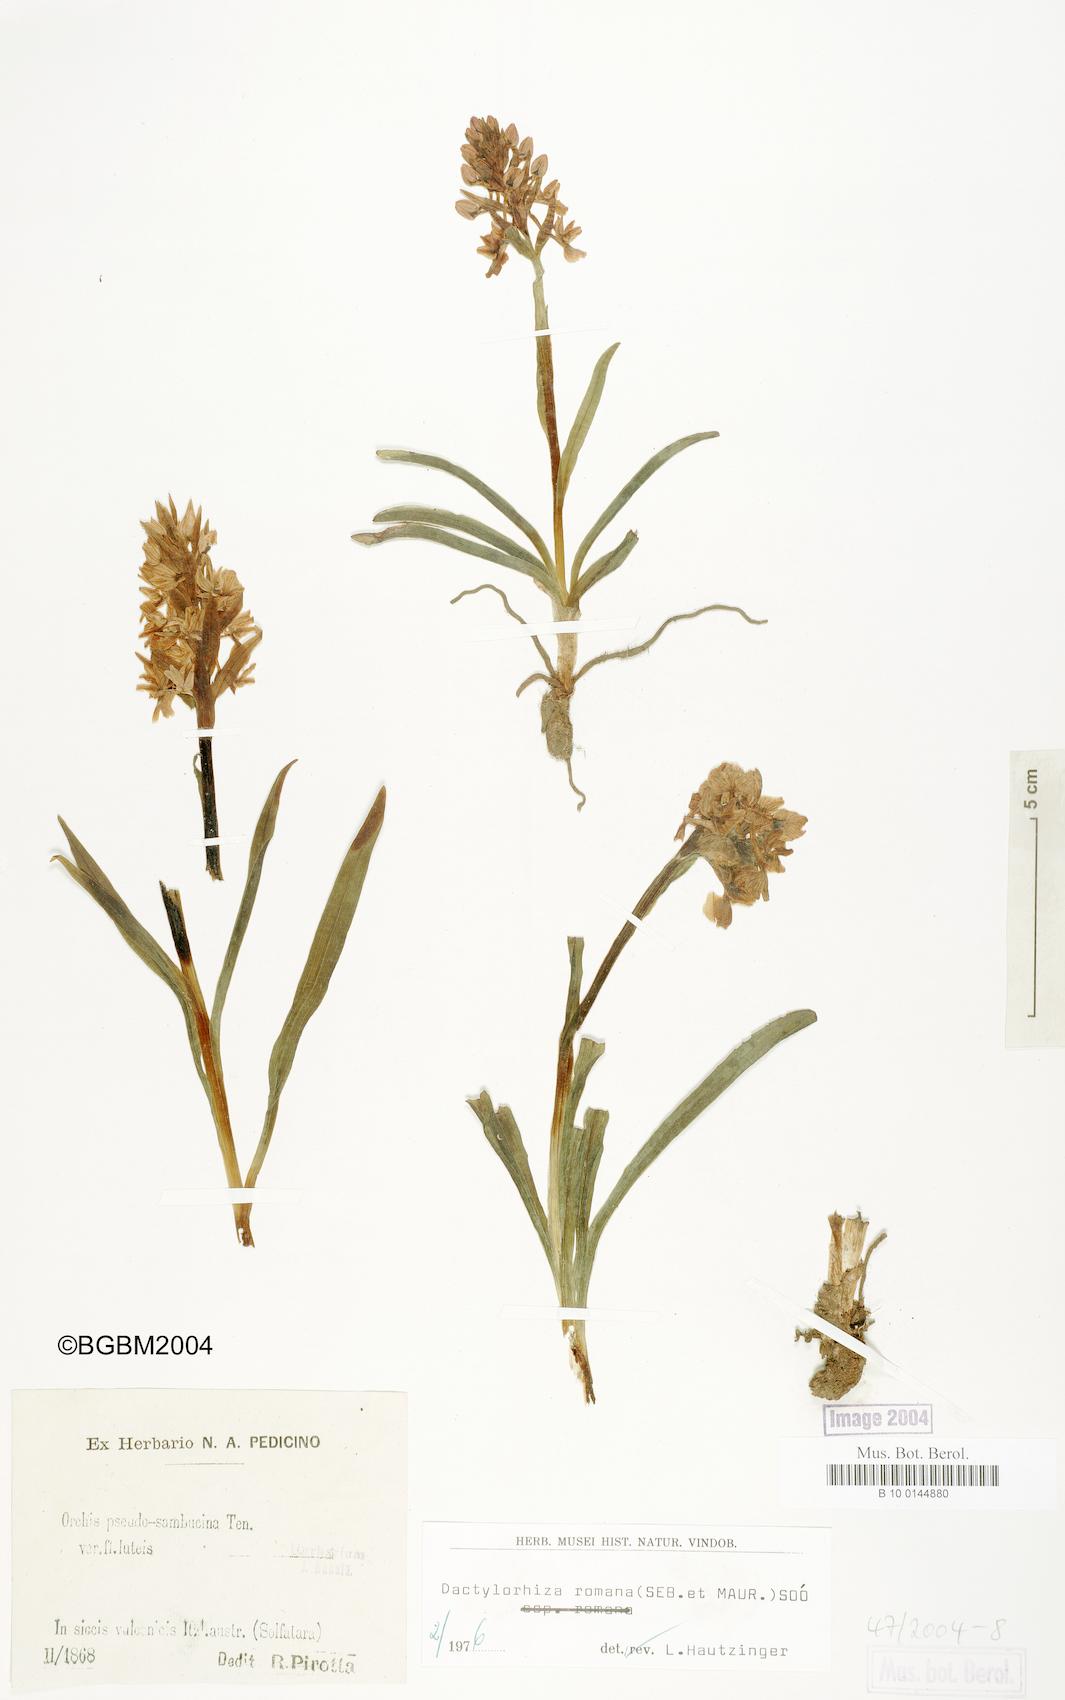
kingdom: Plantae
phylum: Tracheophyta
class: Liliopsida
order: Asparagales
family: Orchidaceae
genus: Dactylorhiza
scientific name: Dactylorhiza romana
